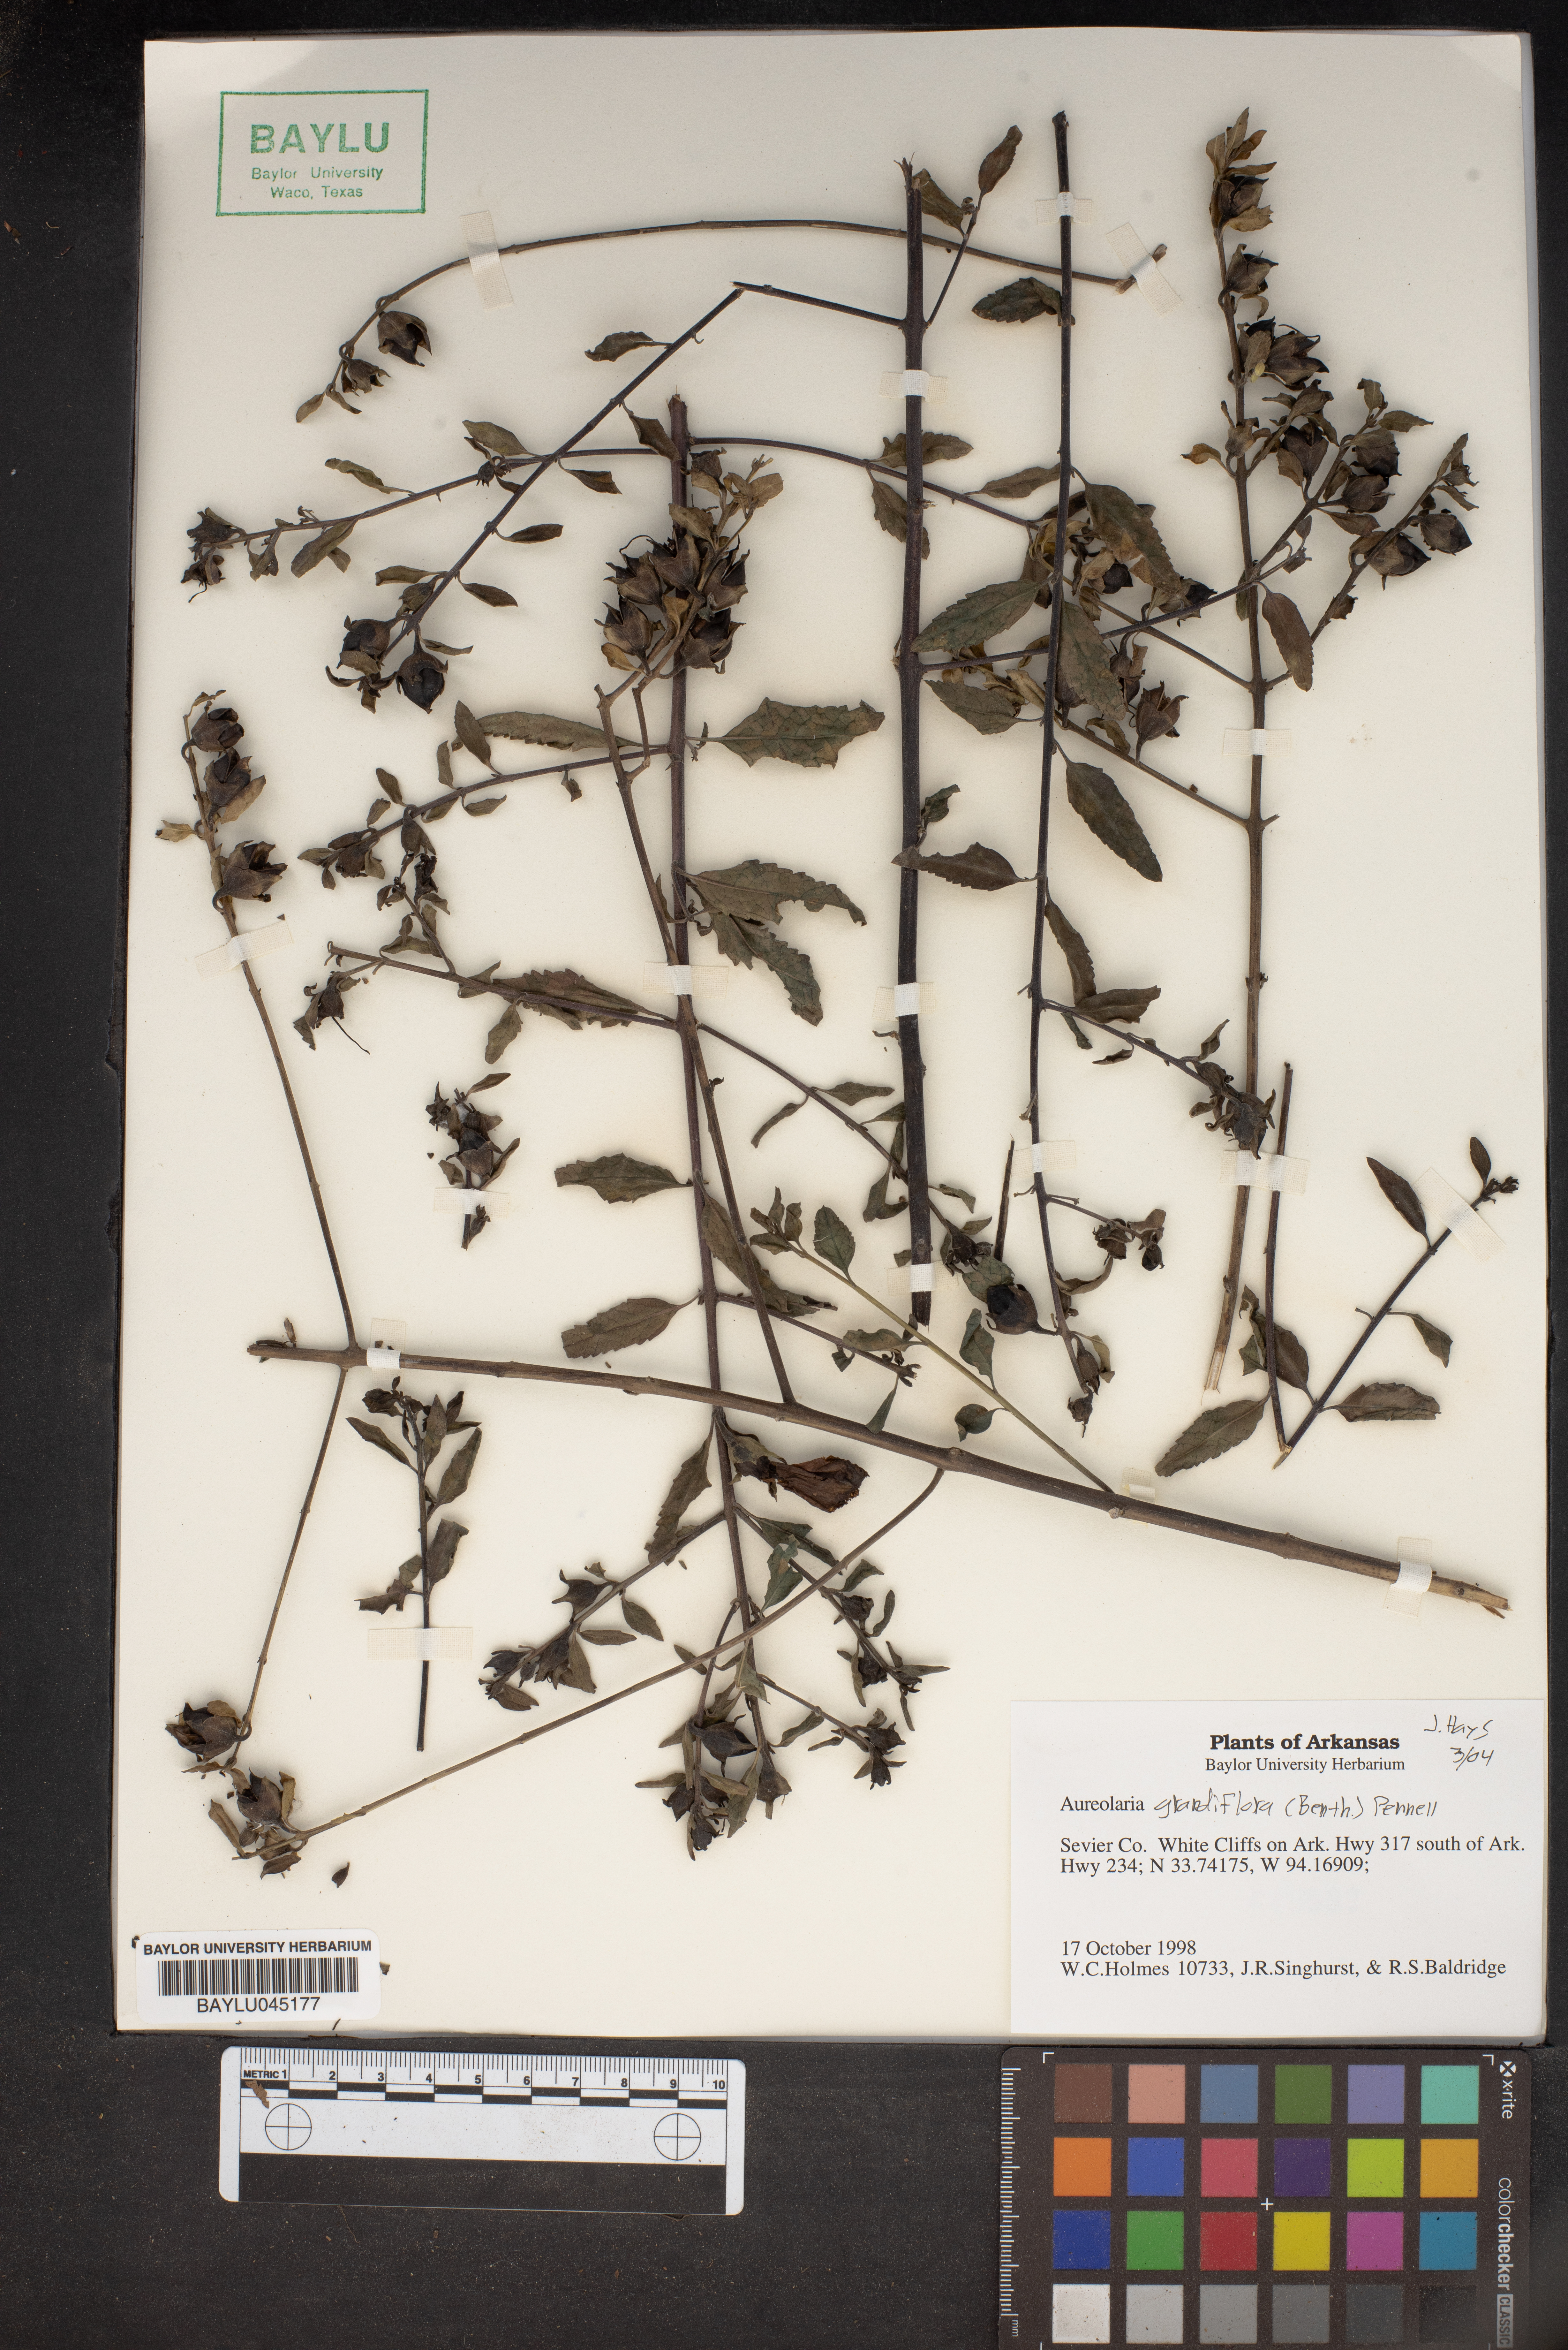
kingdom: Plantae
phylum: Tracheophyta
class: Magnoliopsida
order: Lamiales
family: Orobanchaceae
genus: Aureolaria
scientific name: Aureolaria grandiflora
